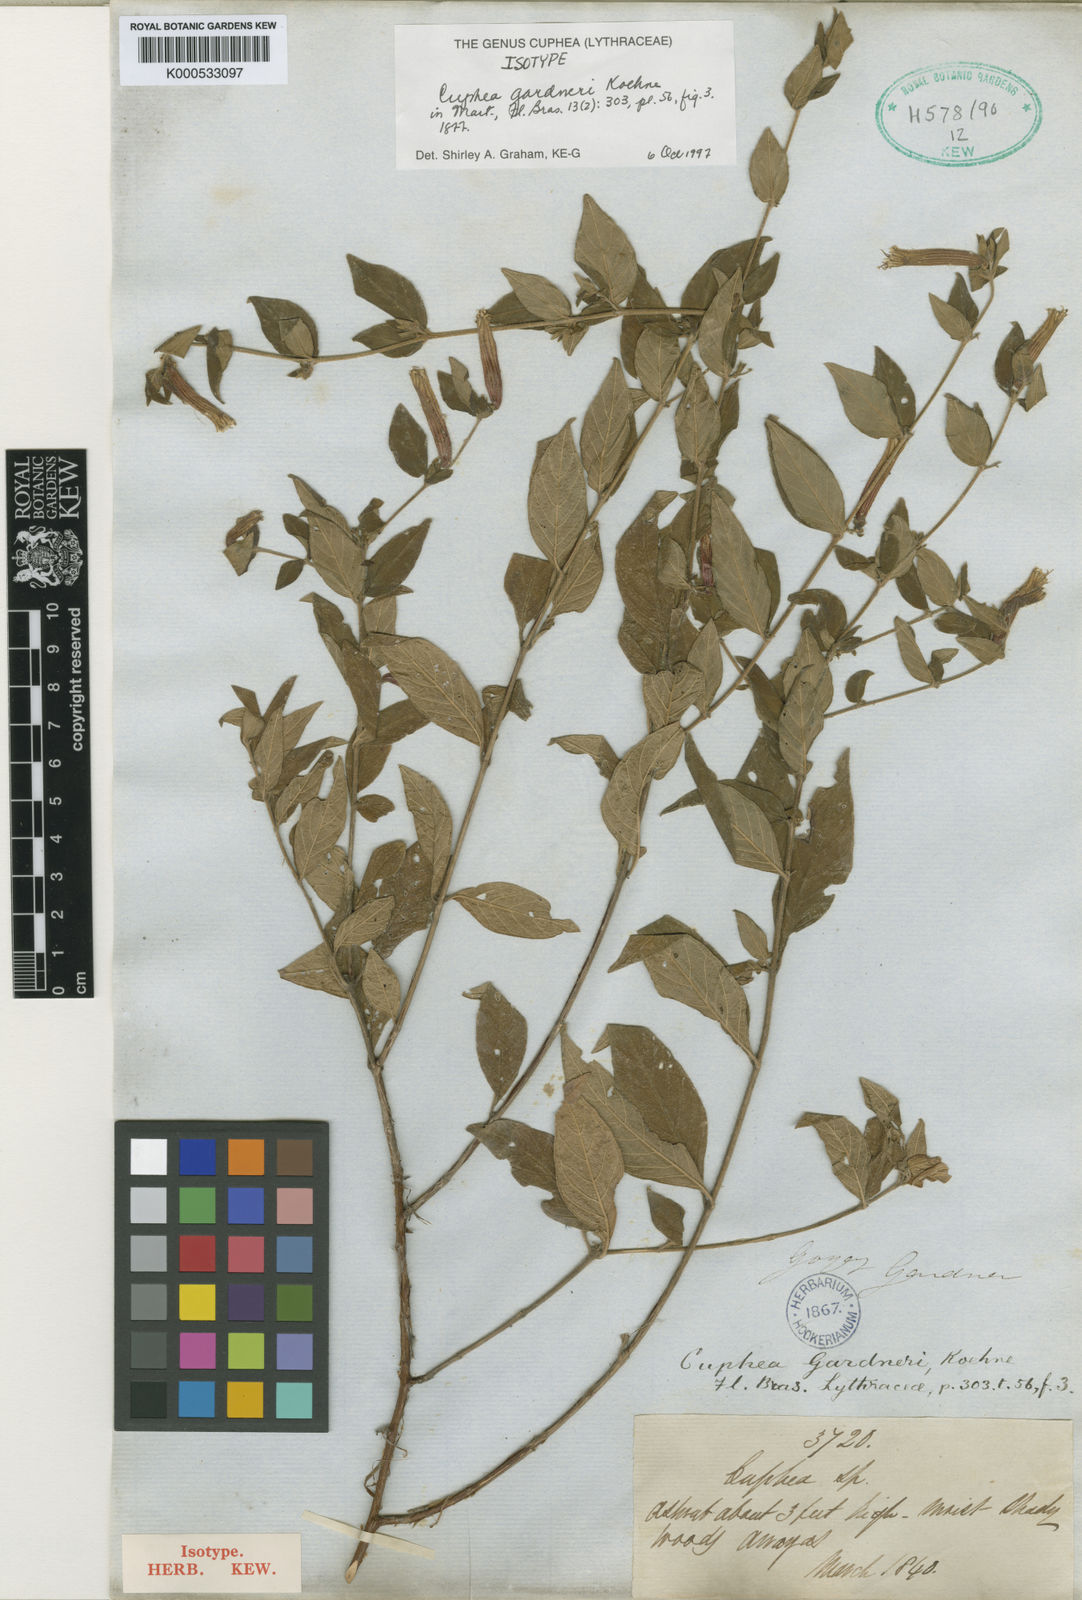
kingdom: Plantae
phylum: Tracheophyta
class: Magnoliopsida
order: Myrtales
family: Lythraceae
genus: Cuphea
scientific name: Cuphea gardneri
